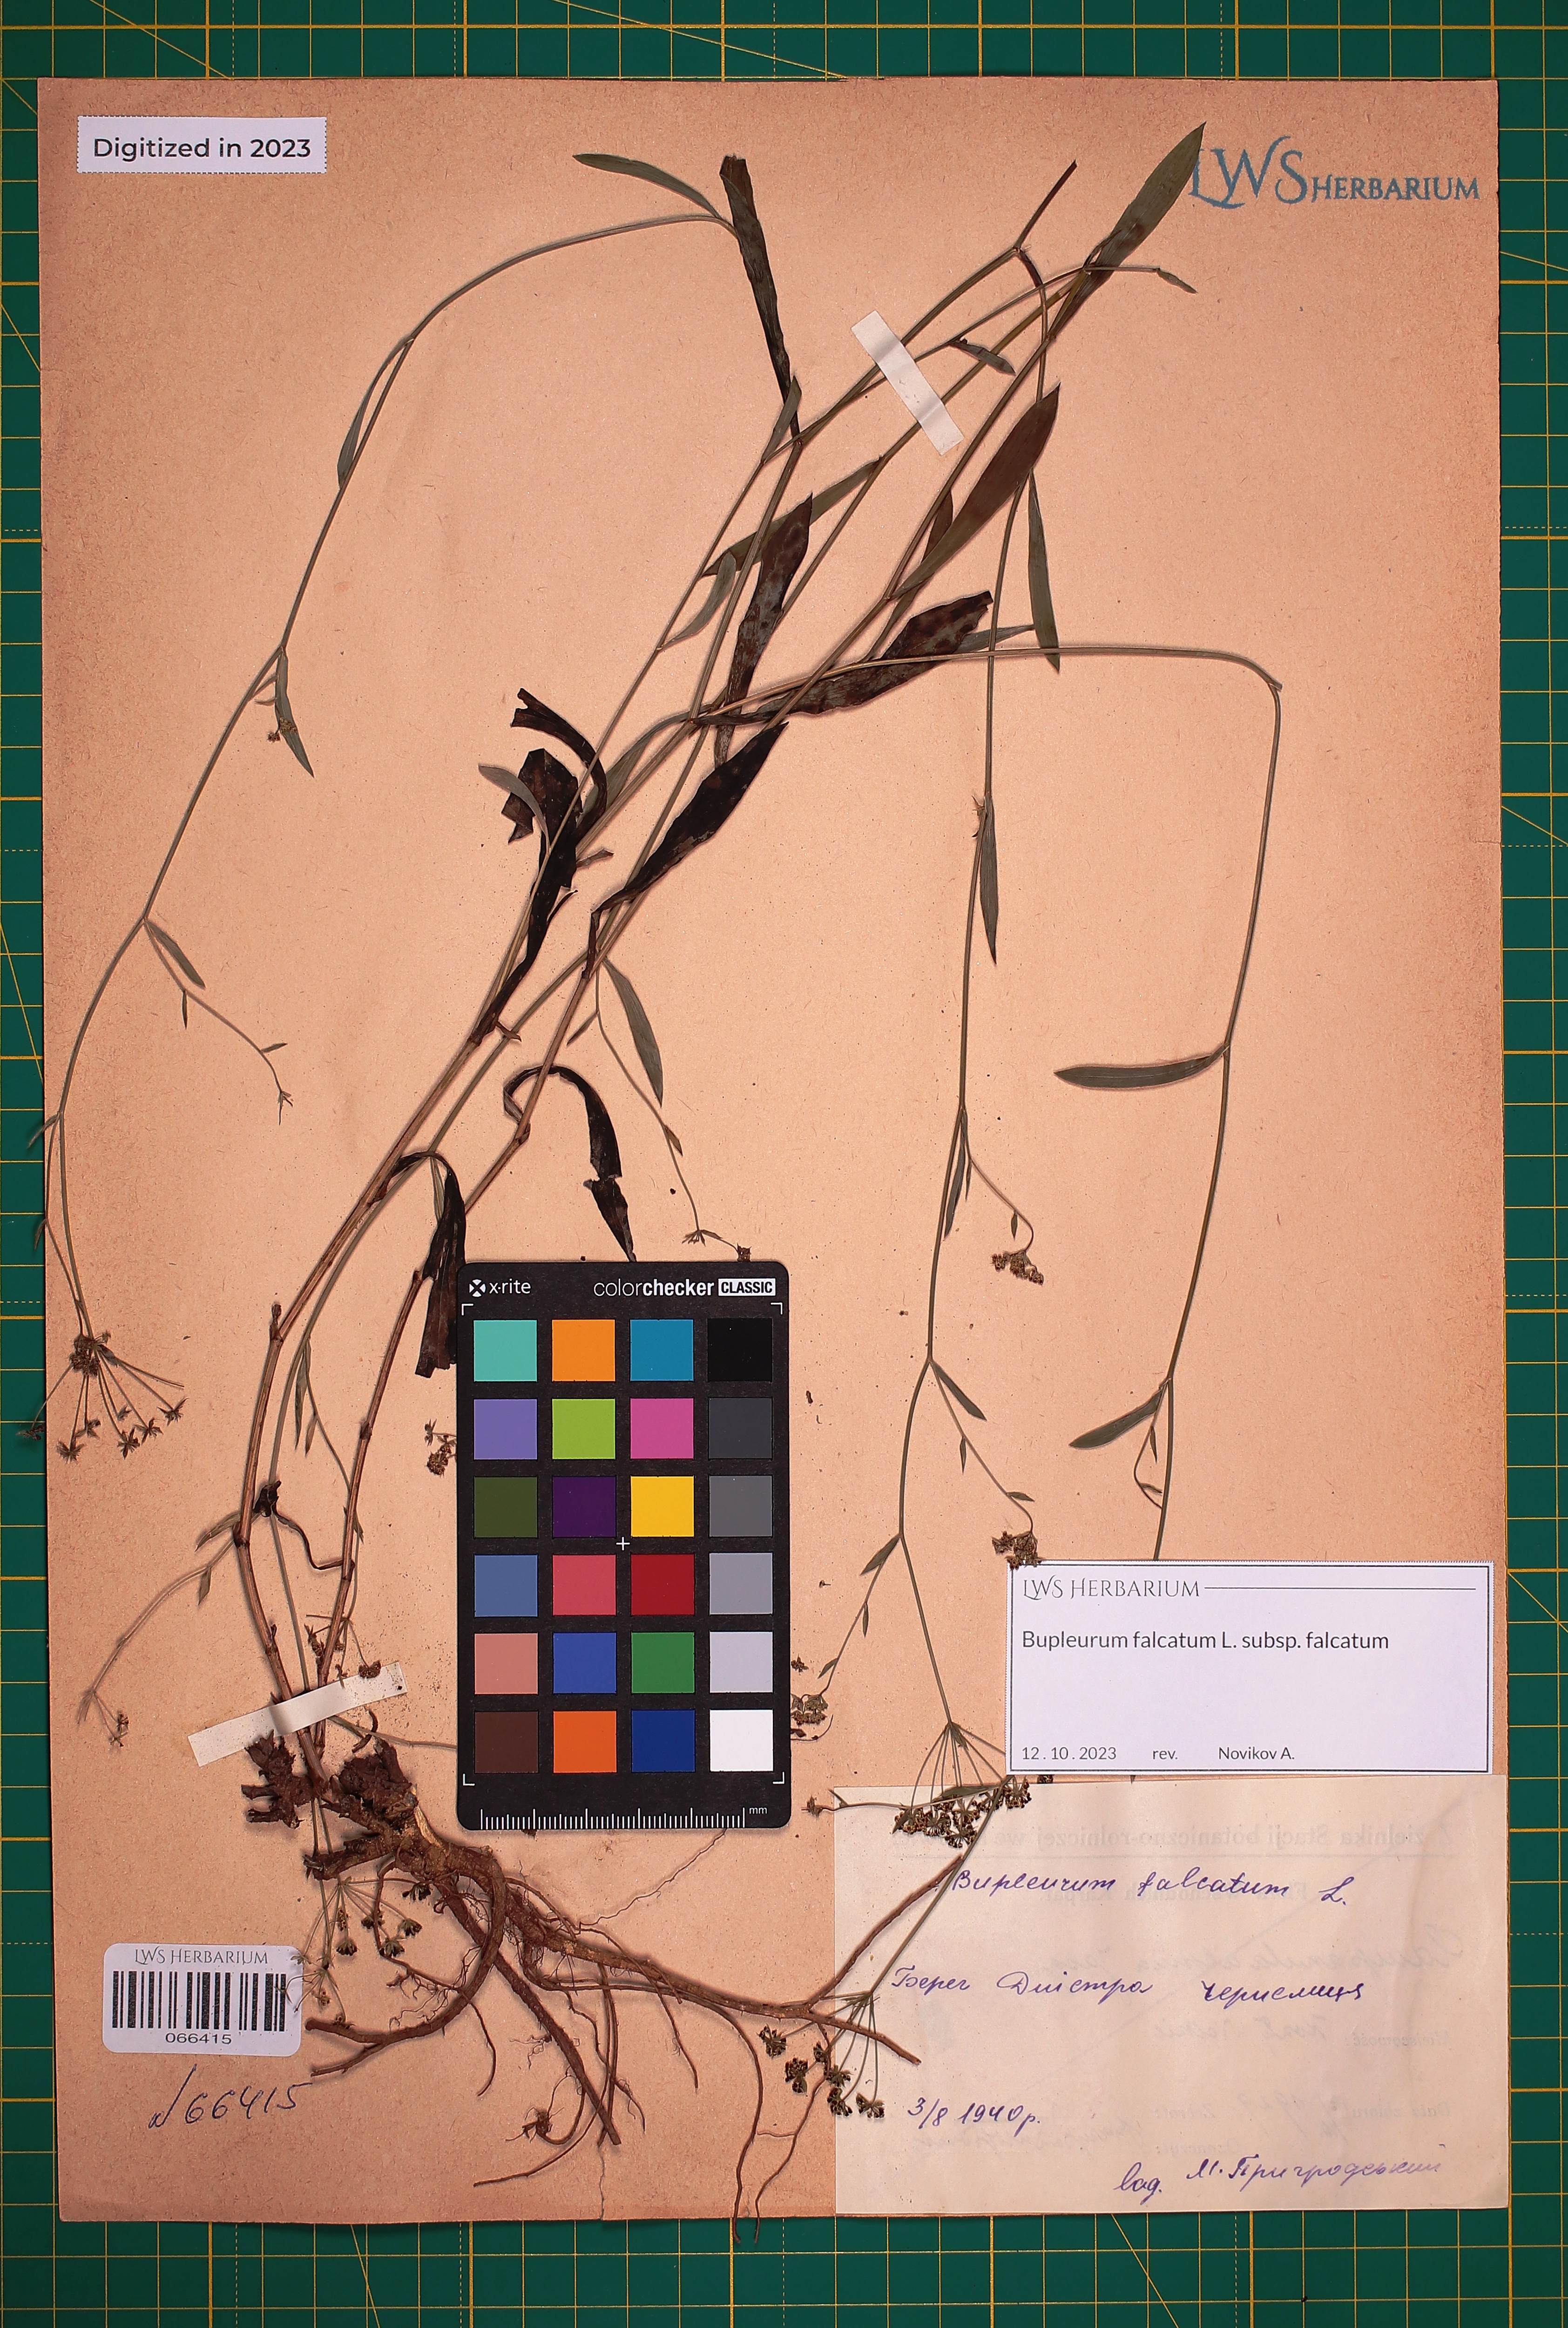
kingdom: Plantae
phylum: Tracheophyta
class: Magnoliopsida
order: Apiales
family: Apiaceae
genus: Bupleurum
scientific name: Bupleurum falcatum
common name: Sickle-leaved hare's-ear
